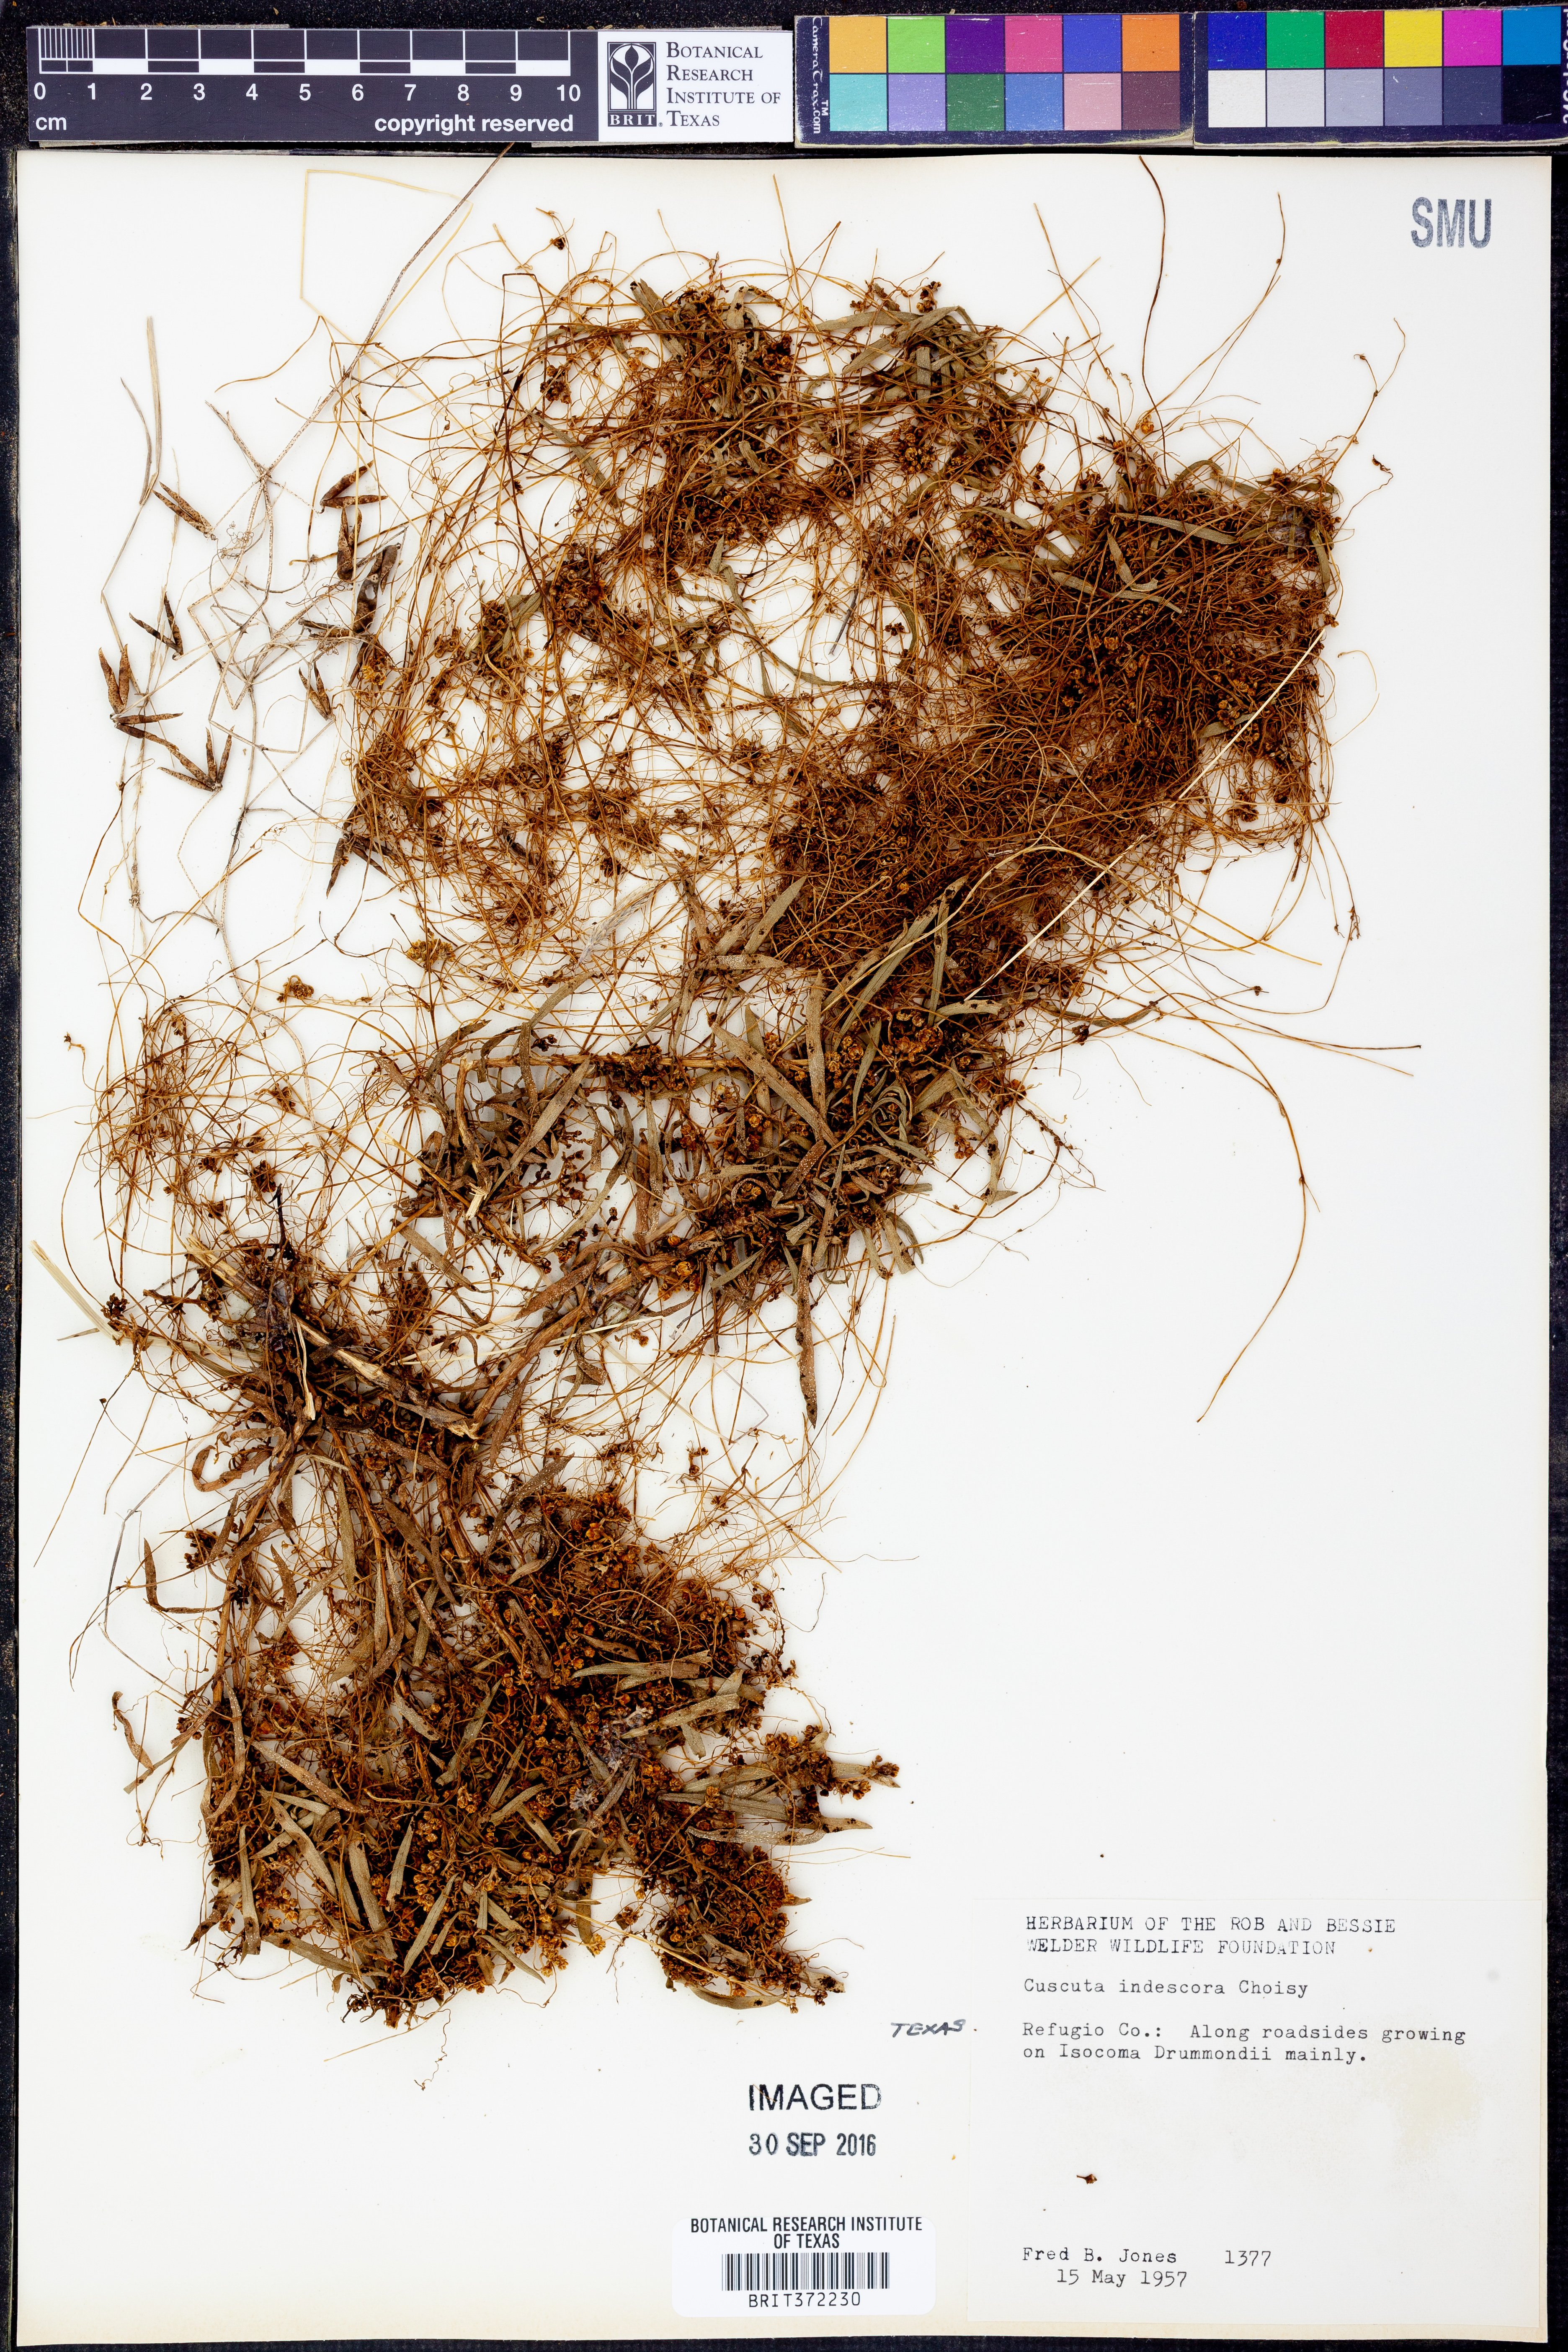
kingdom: Plantae
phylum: Tracheophyta
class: Magnoliopsida
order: Solanales
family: Convolvulaceae
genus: Cuscuta
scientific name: Cuscuta indecora
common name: Large-seed dodder
